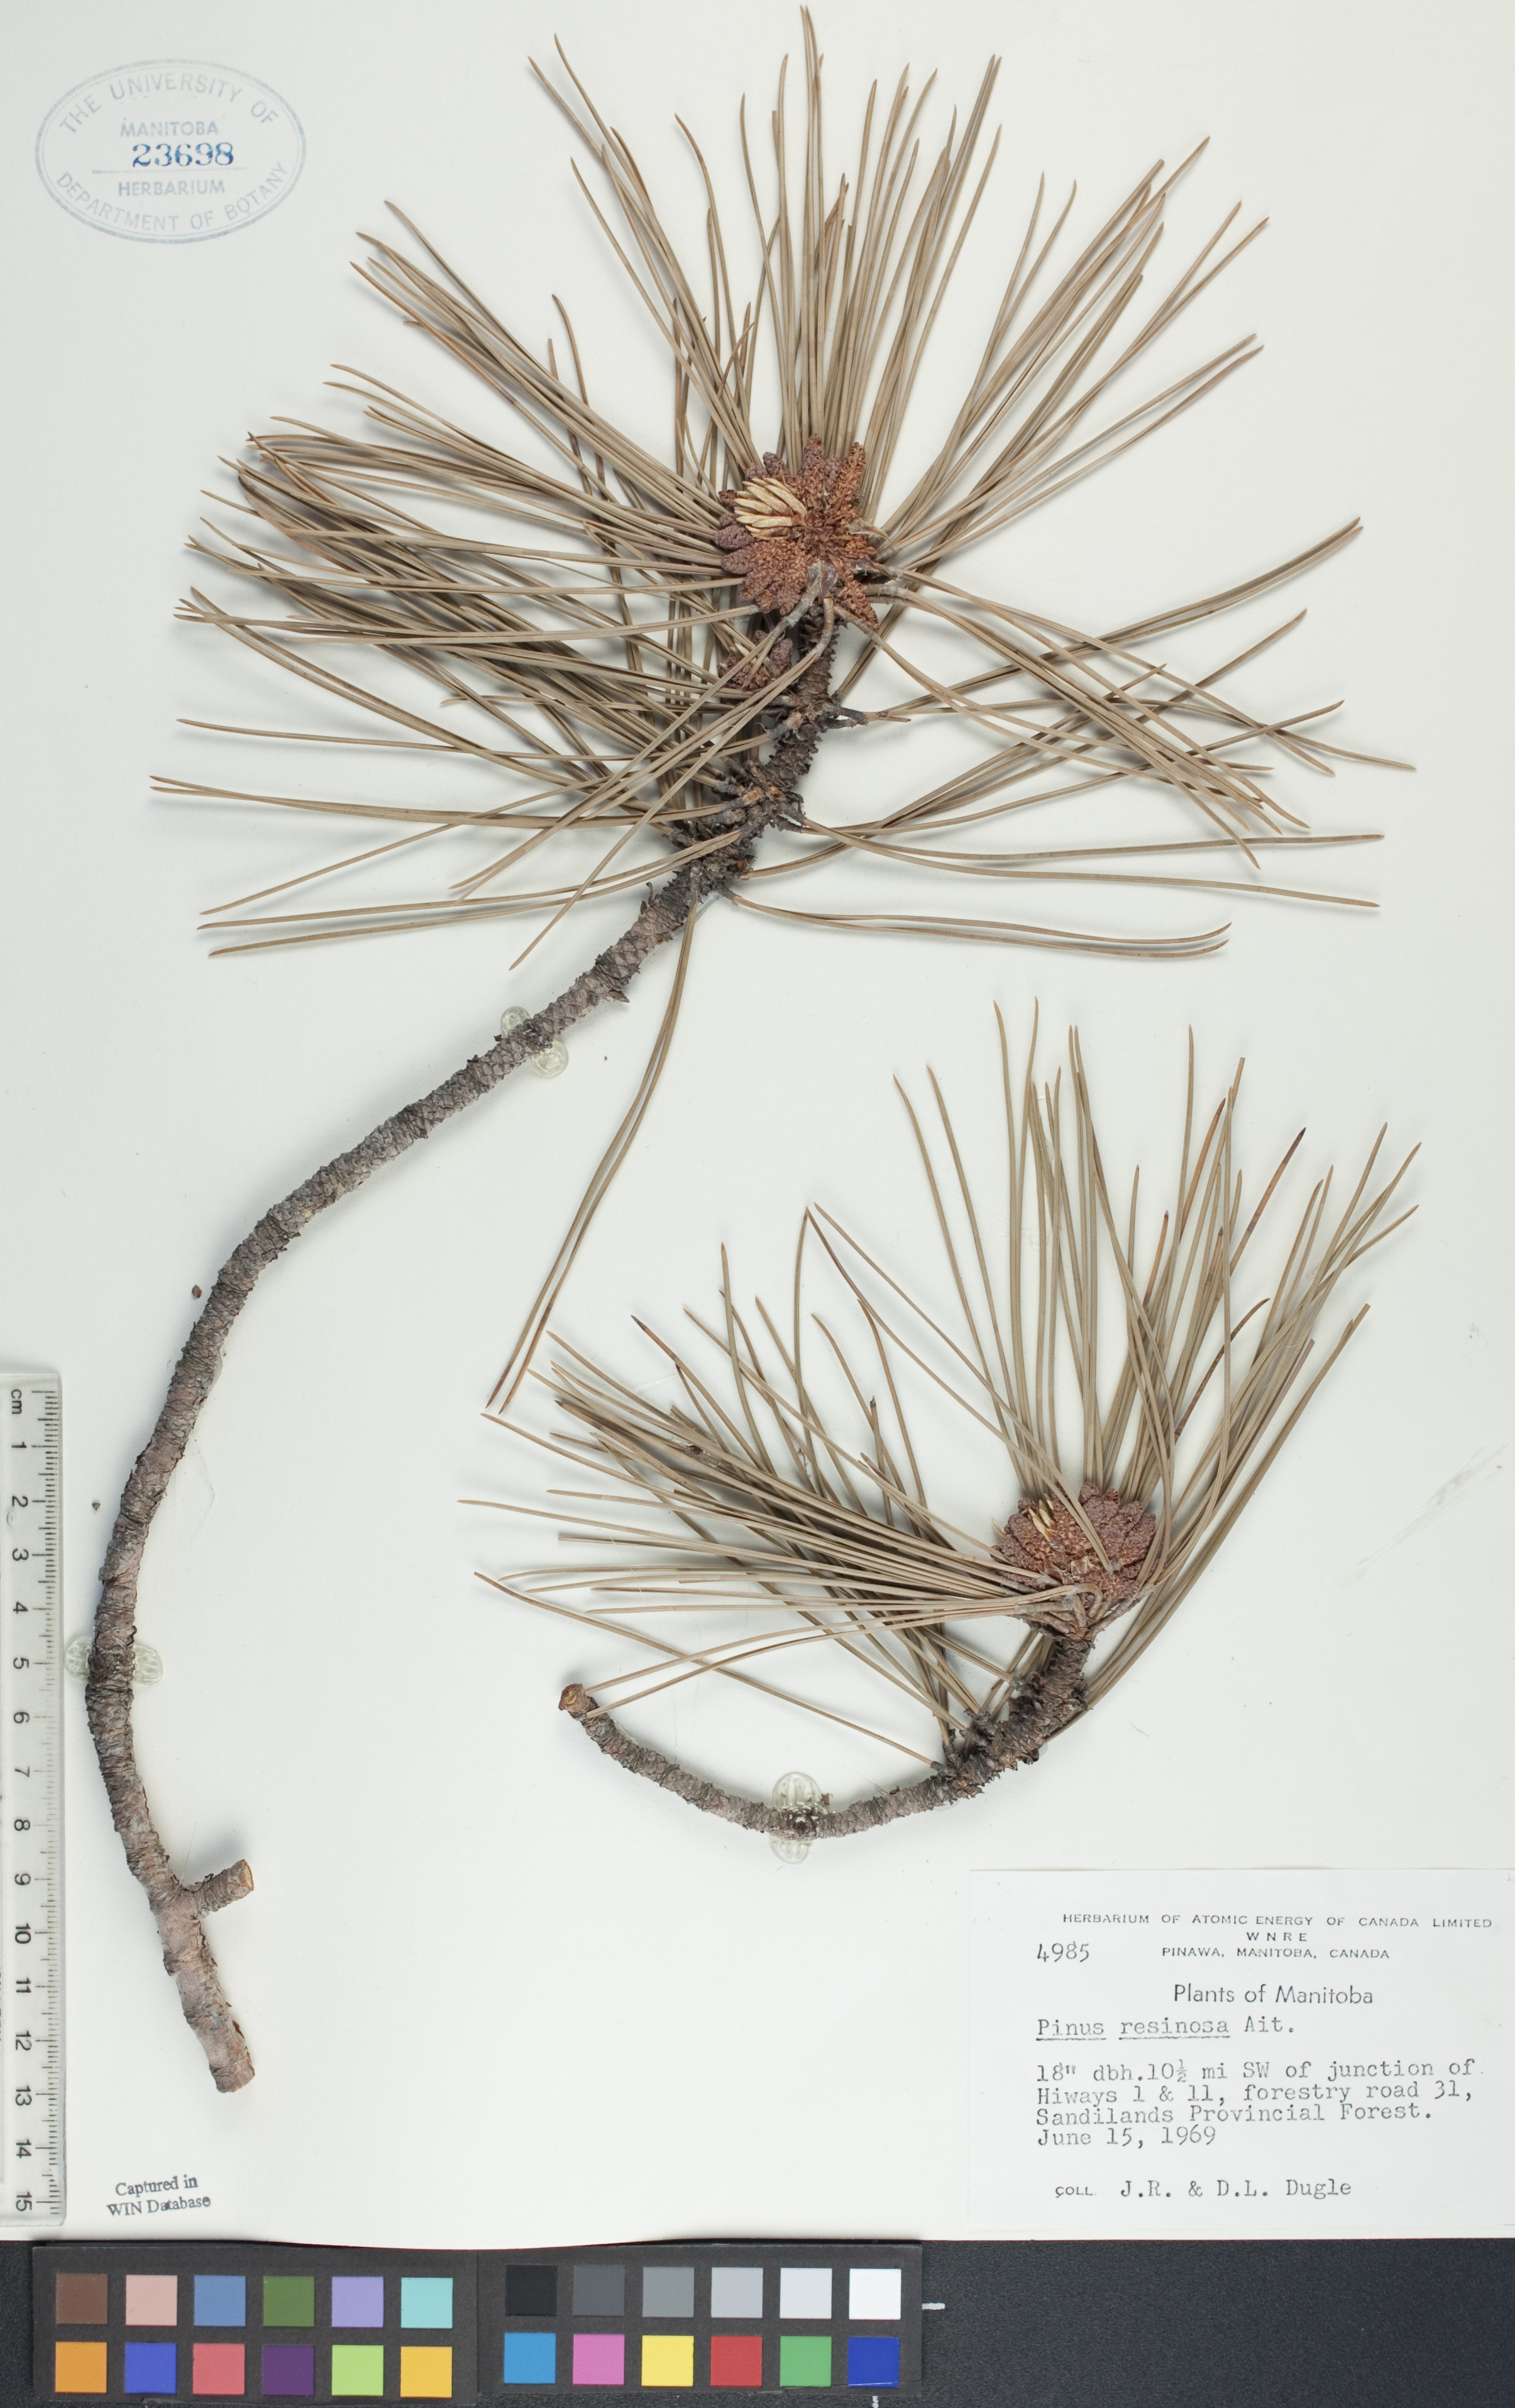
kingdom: Plantae
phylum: Tracheophyta
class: Pinopsida
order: Pinales
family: Pinaceae
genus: Pinus
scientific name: Pinus resinosa
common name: Norway pine
